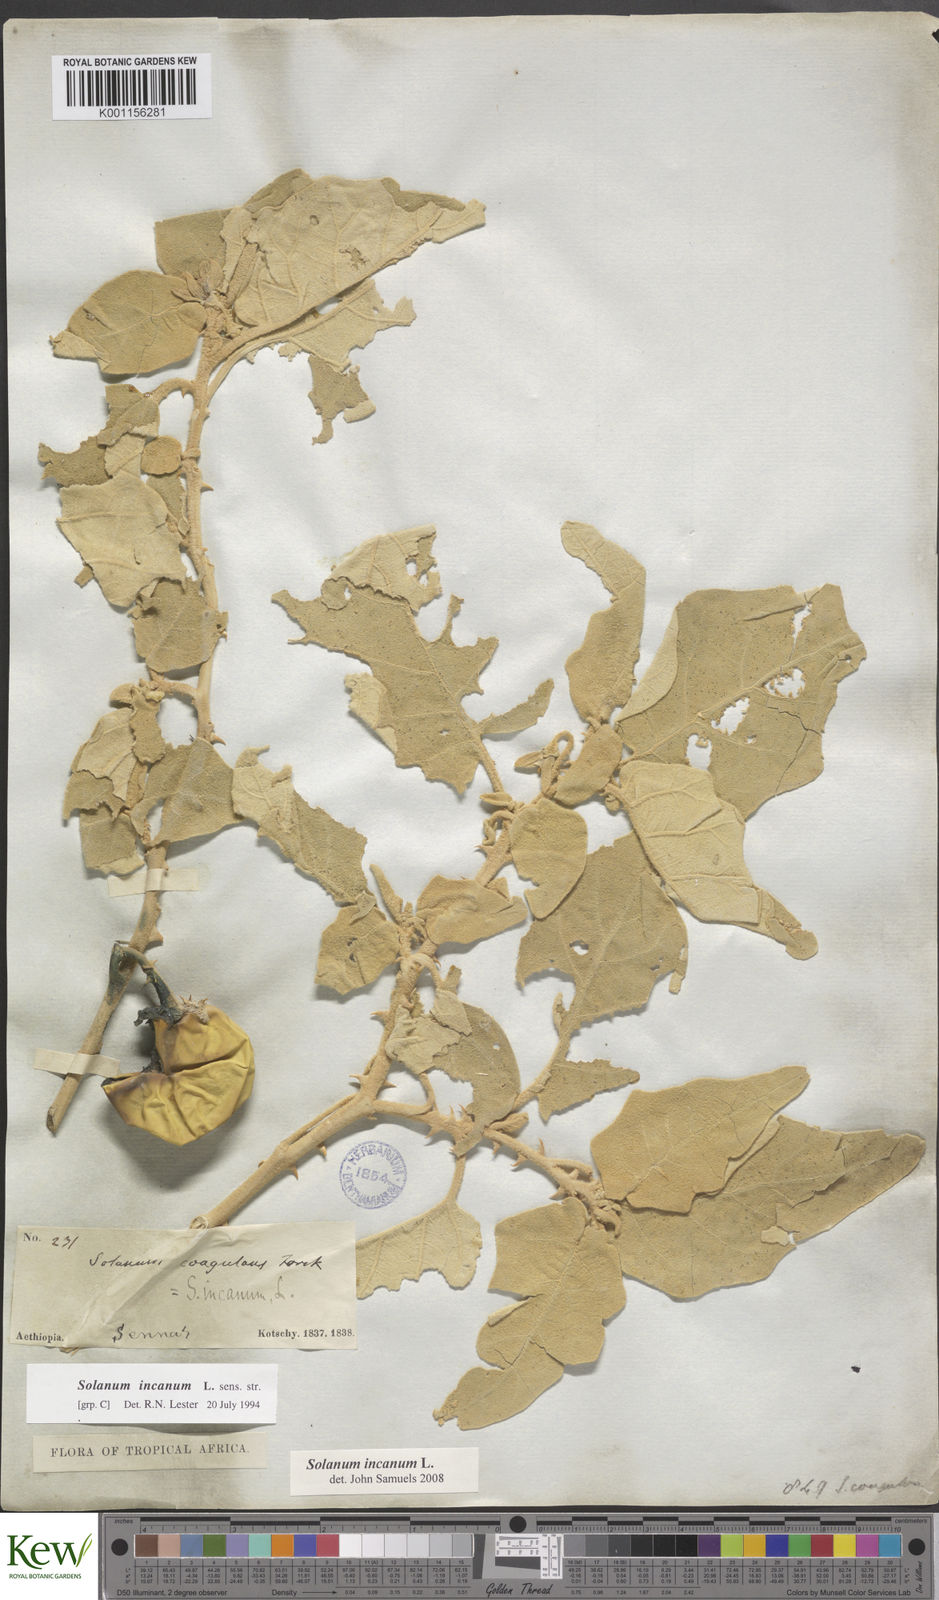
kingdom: Plantae
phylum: Tracheophyta
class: Magnoliopsida
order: Solanales
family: Solanaceae
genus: Solanum
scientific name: Solanum incanum
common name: Bitter apple
